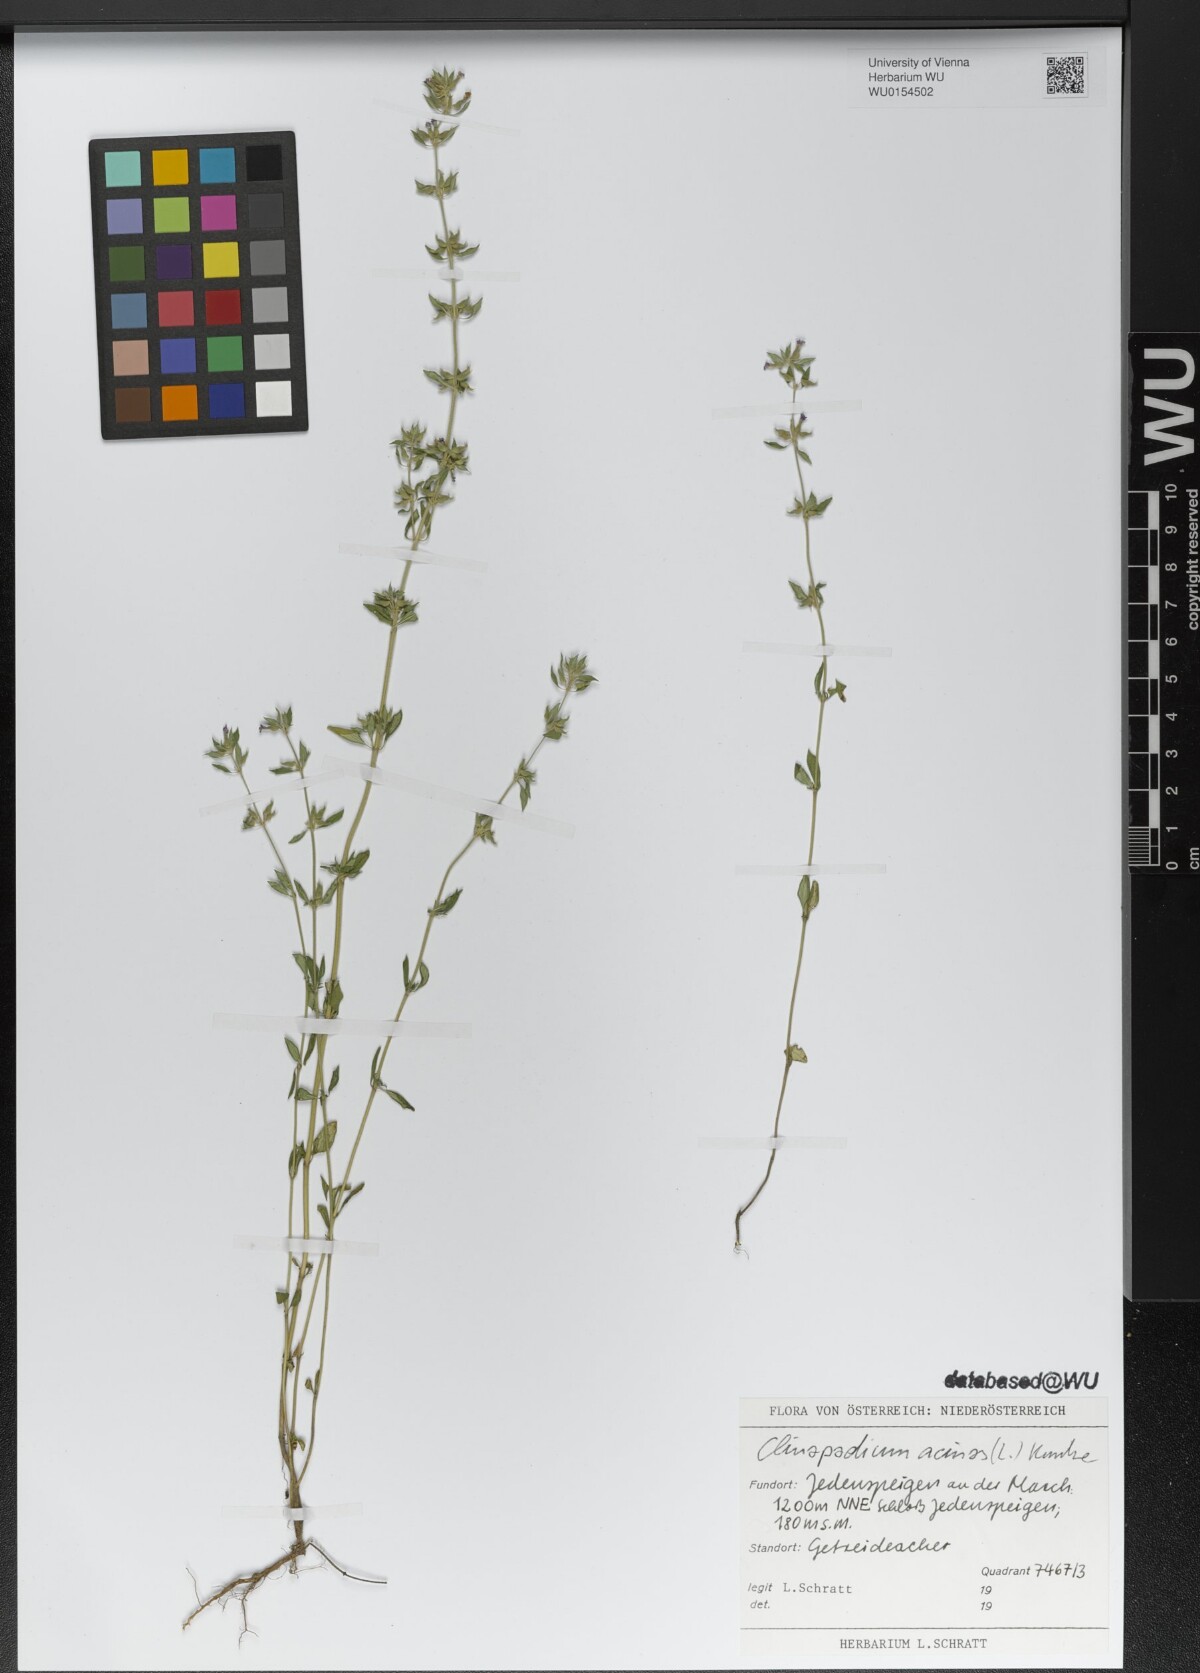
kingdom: Plantae
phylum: Tracheophyta
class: Magnoliopsida
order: Lamiales
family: Lamiaceae
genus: Clinopodium
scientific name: Clinopodium acinos
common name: Basil thyme
